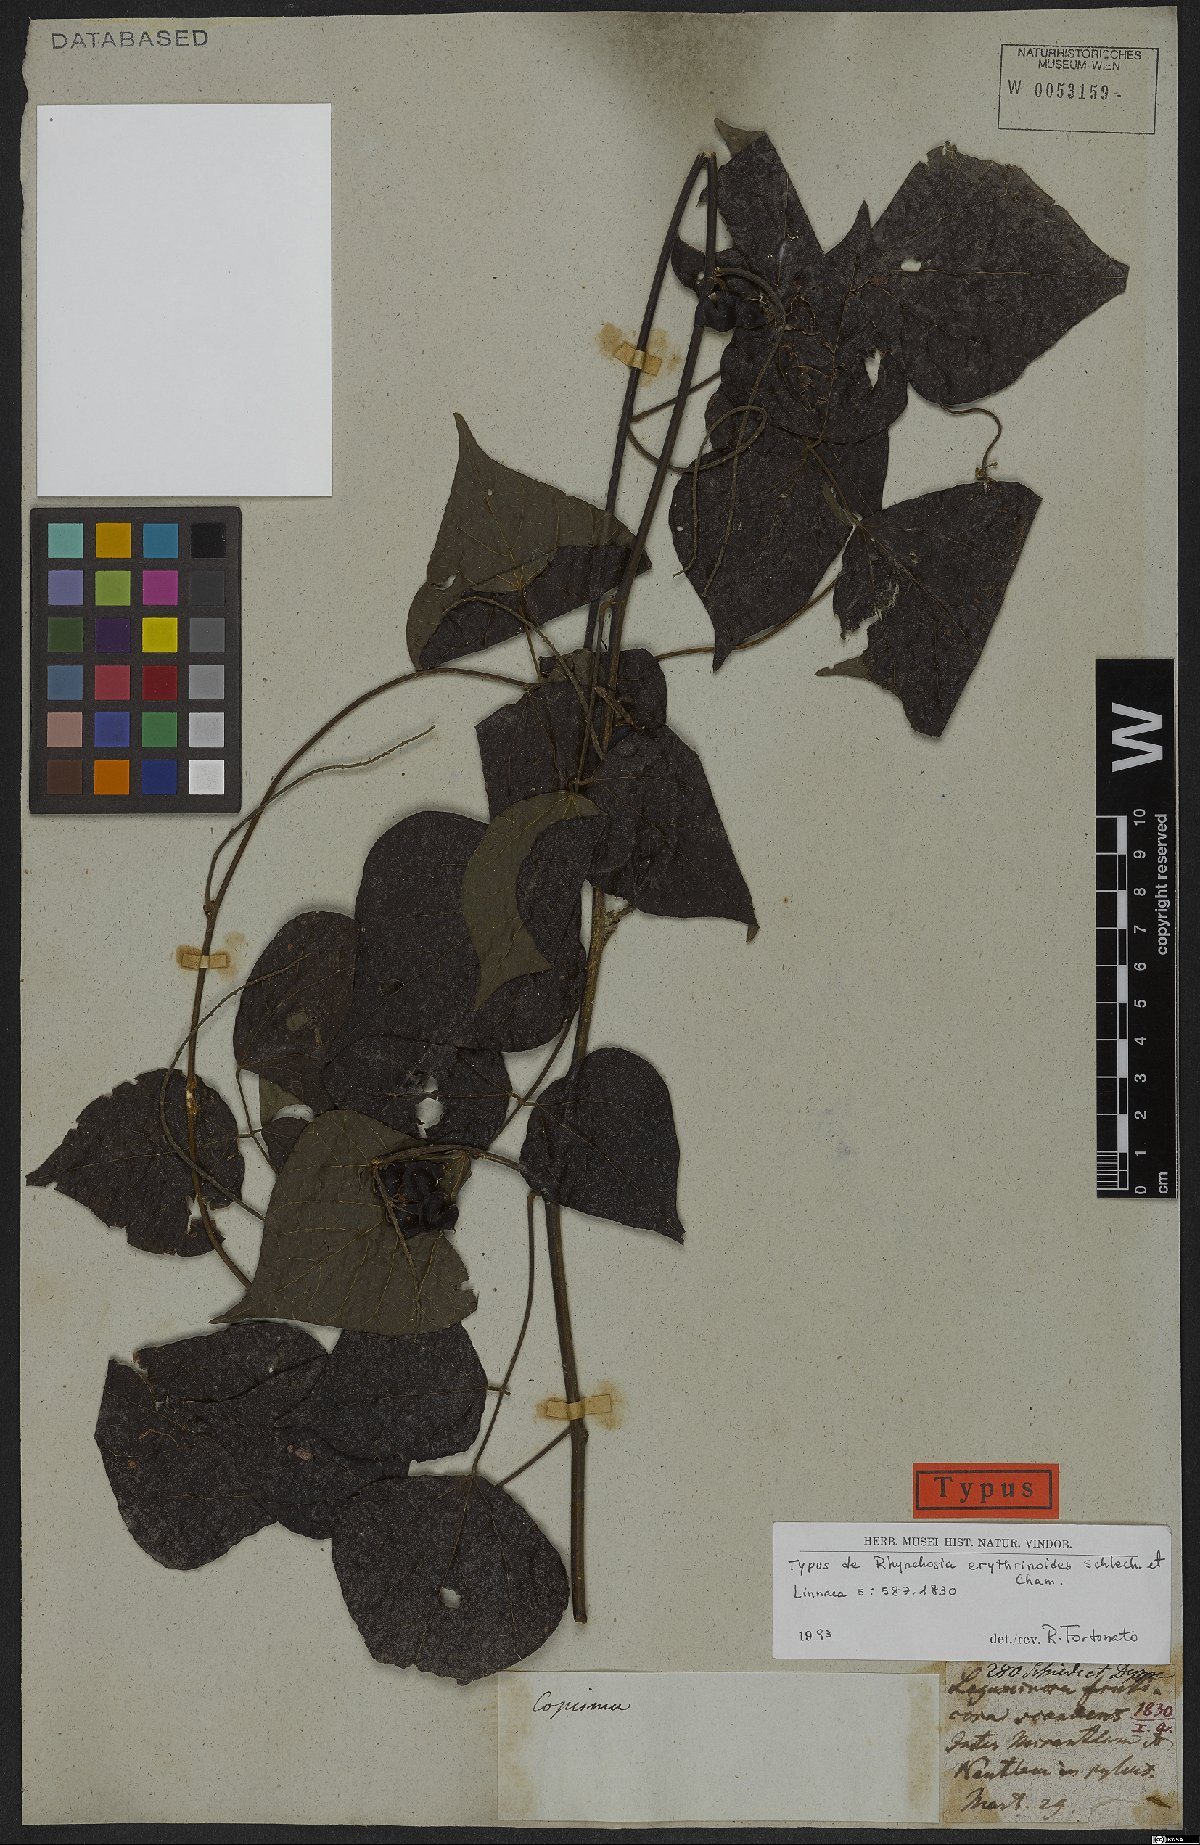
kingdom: Plantae
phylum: Tracheophyta
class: Magnoliopsida
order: Fabales
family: Fabaceae
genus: Rhynchosia
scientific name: Rhynchosia erythrinoides
